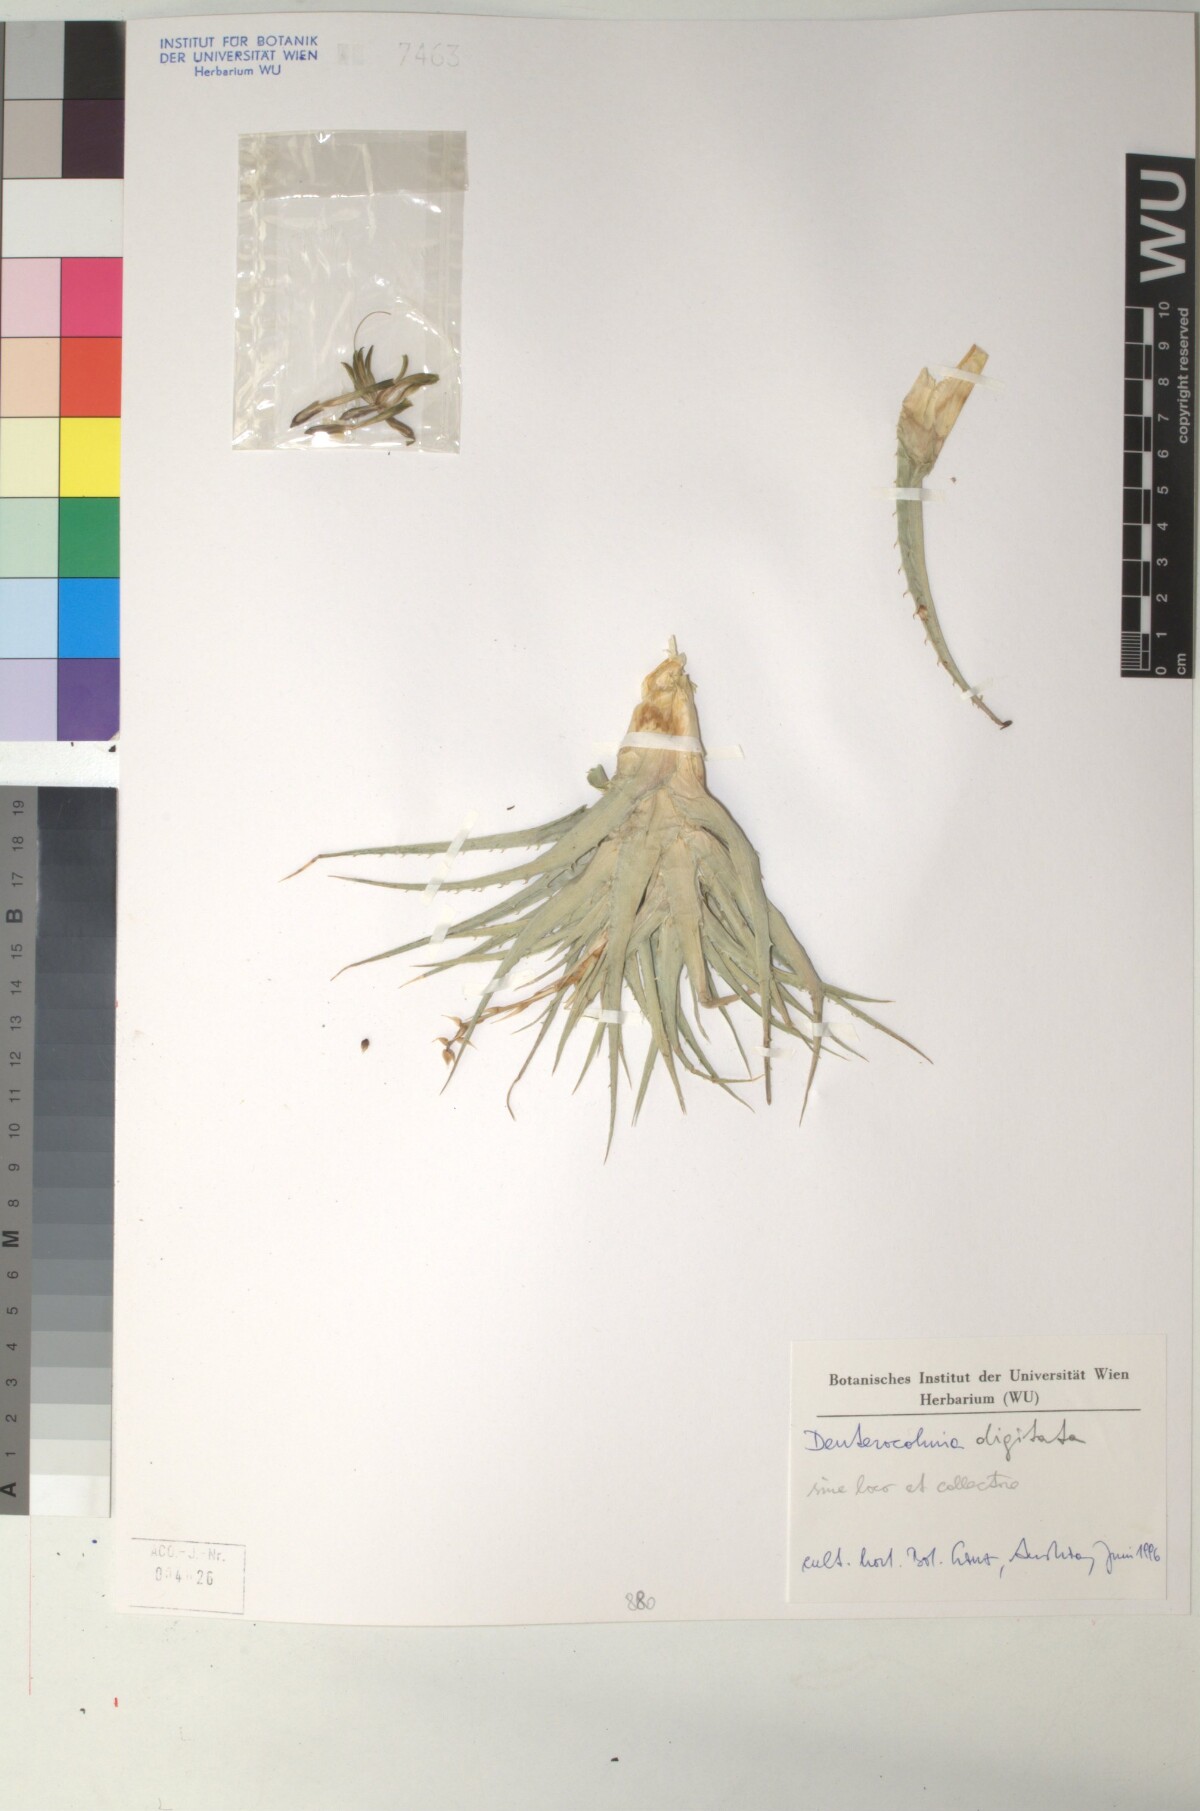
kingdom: Plantae
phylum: Tracheophyta
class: Liliopsida
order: Poales
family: Bromeliaceae
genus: Deuterocohnia
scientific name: Deuterocohnia digitata
